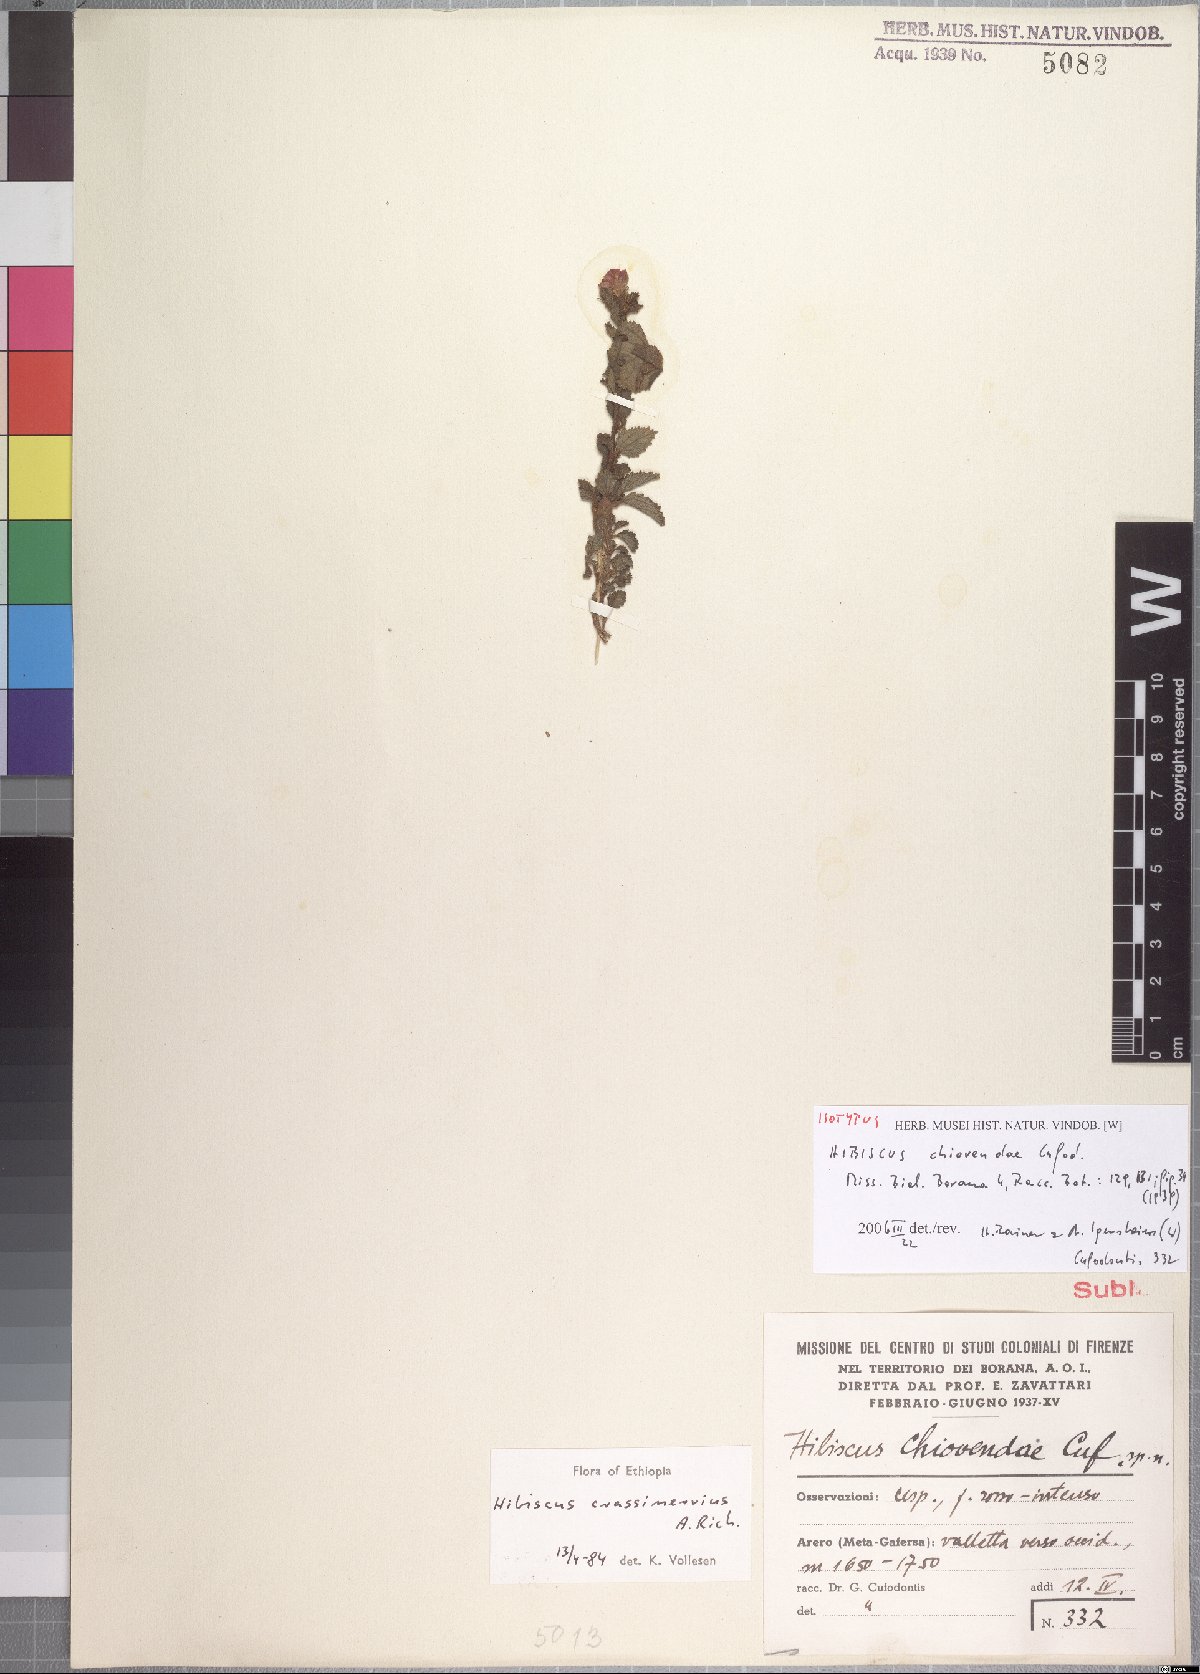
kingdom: Plantae
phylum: Tracheophyta
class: Magnoliopsida
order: Malvales
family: Malvaceae
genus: Hibiscus
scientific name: Hibiscus crassinervius
